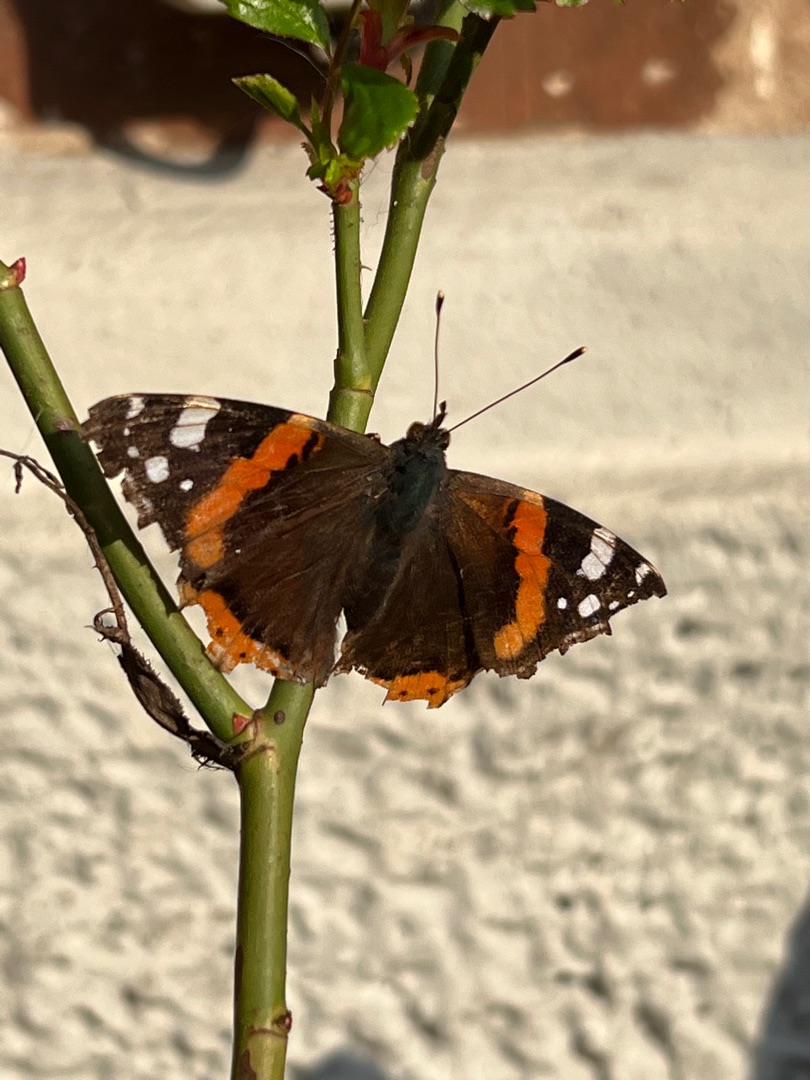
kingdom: Animalia
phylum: Arthropoda
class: Insecta
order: Lepidoptera
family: Nymphalidae
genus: Vanessa
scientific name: Vanessa atalanta
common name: Admiral
